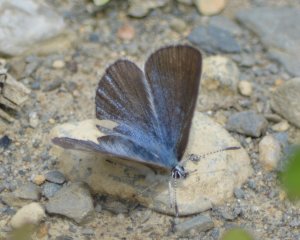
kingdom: Animalia
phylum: Arthropoda
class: Insecta
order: Lepidoptera
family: Lycaenidae
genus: Glaucopsyche
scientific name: Glaucopsyche lygdamus
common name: Silvery Blue
